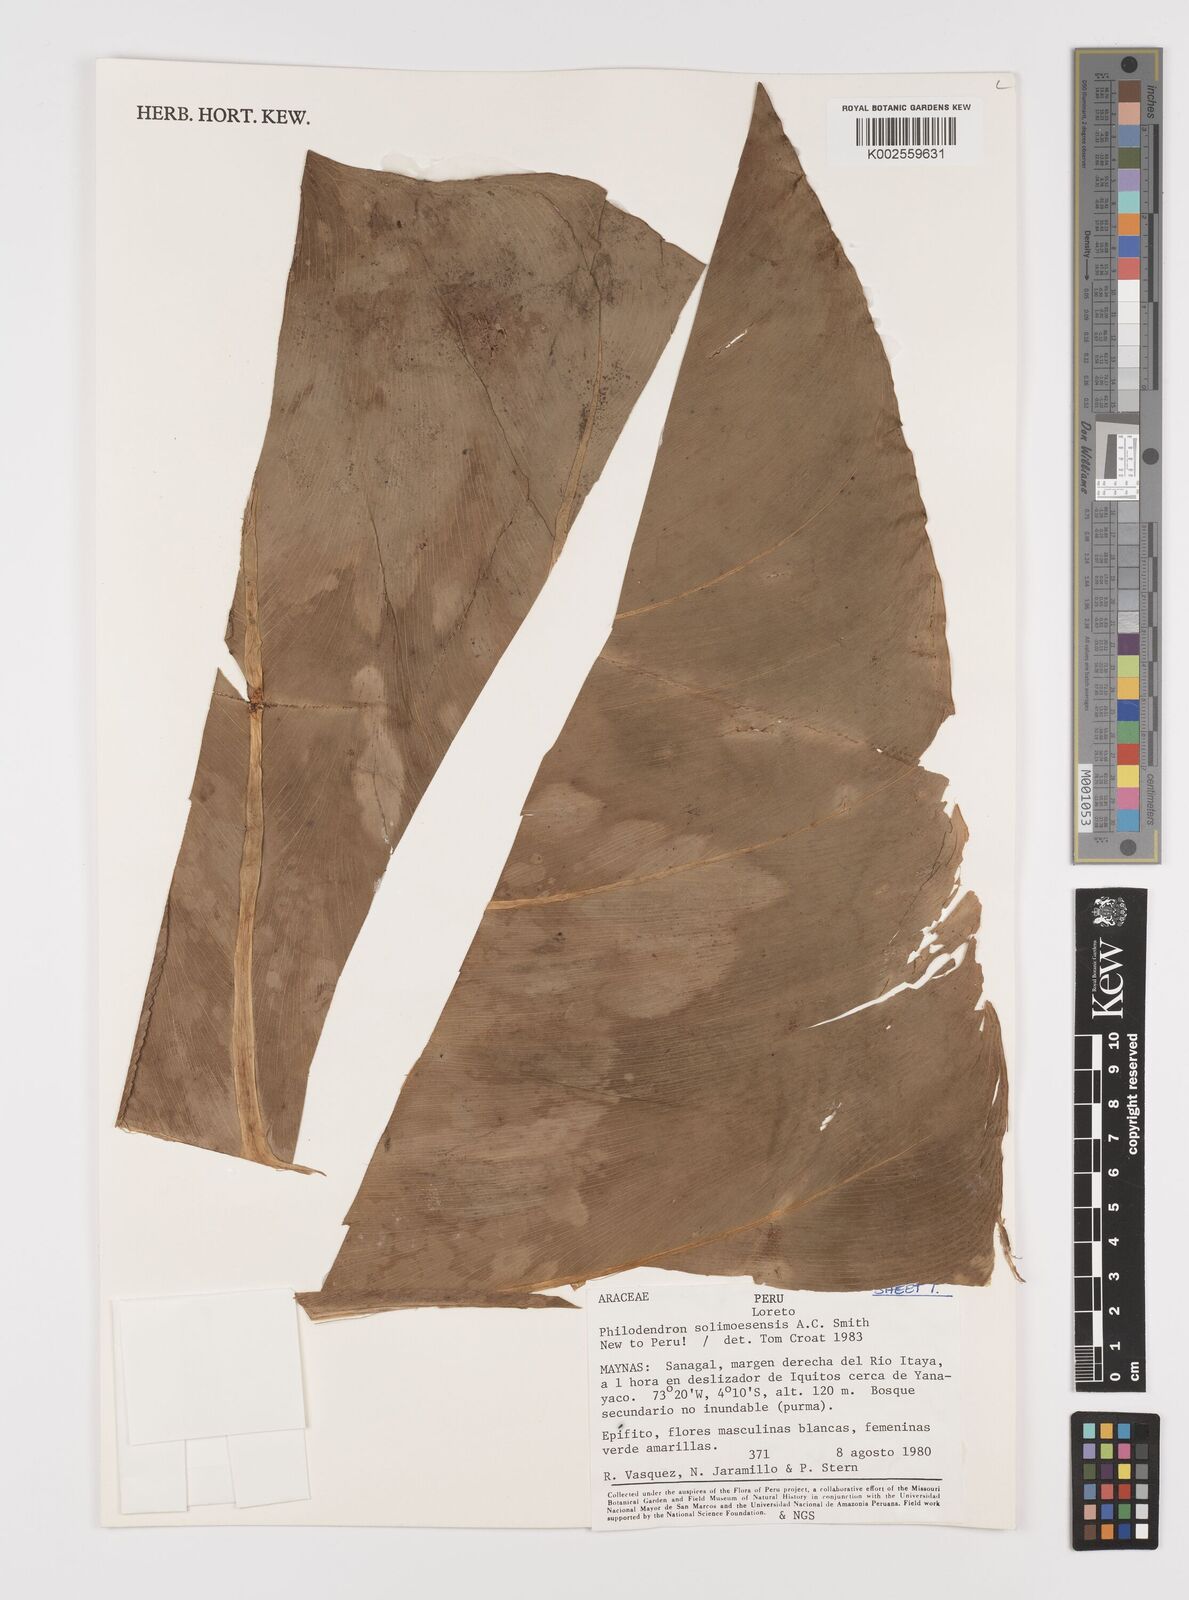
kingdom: Plantae
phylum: Tracheophyta
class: Liliopsida
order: Alismatales
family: Araceae
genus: Thaumatophyllum
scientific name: Thaumatophyllum solimoesense
